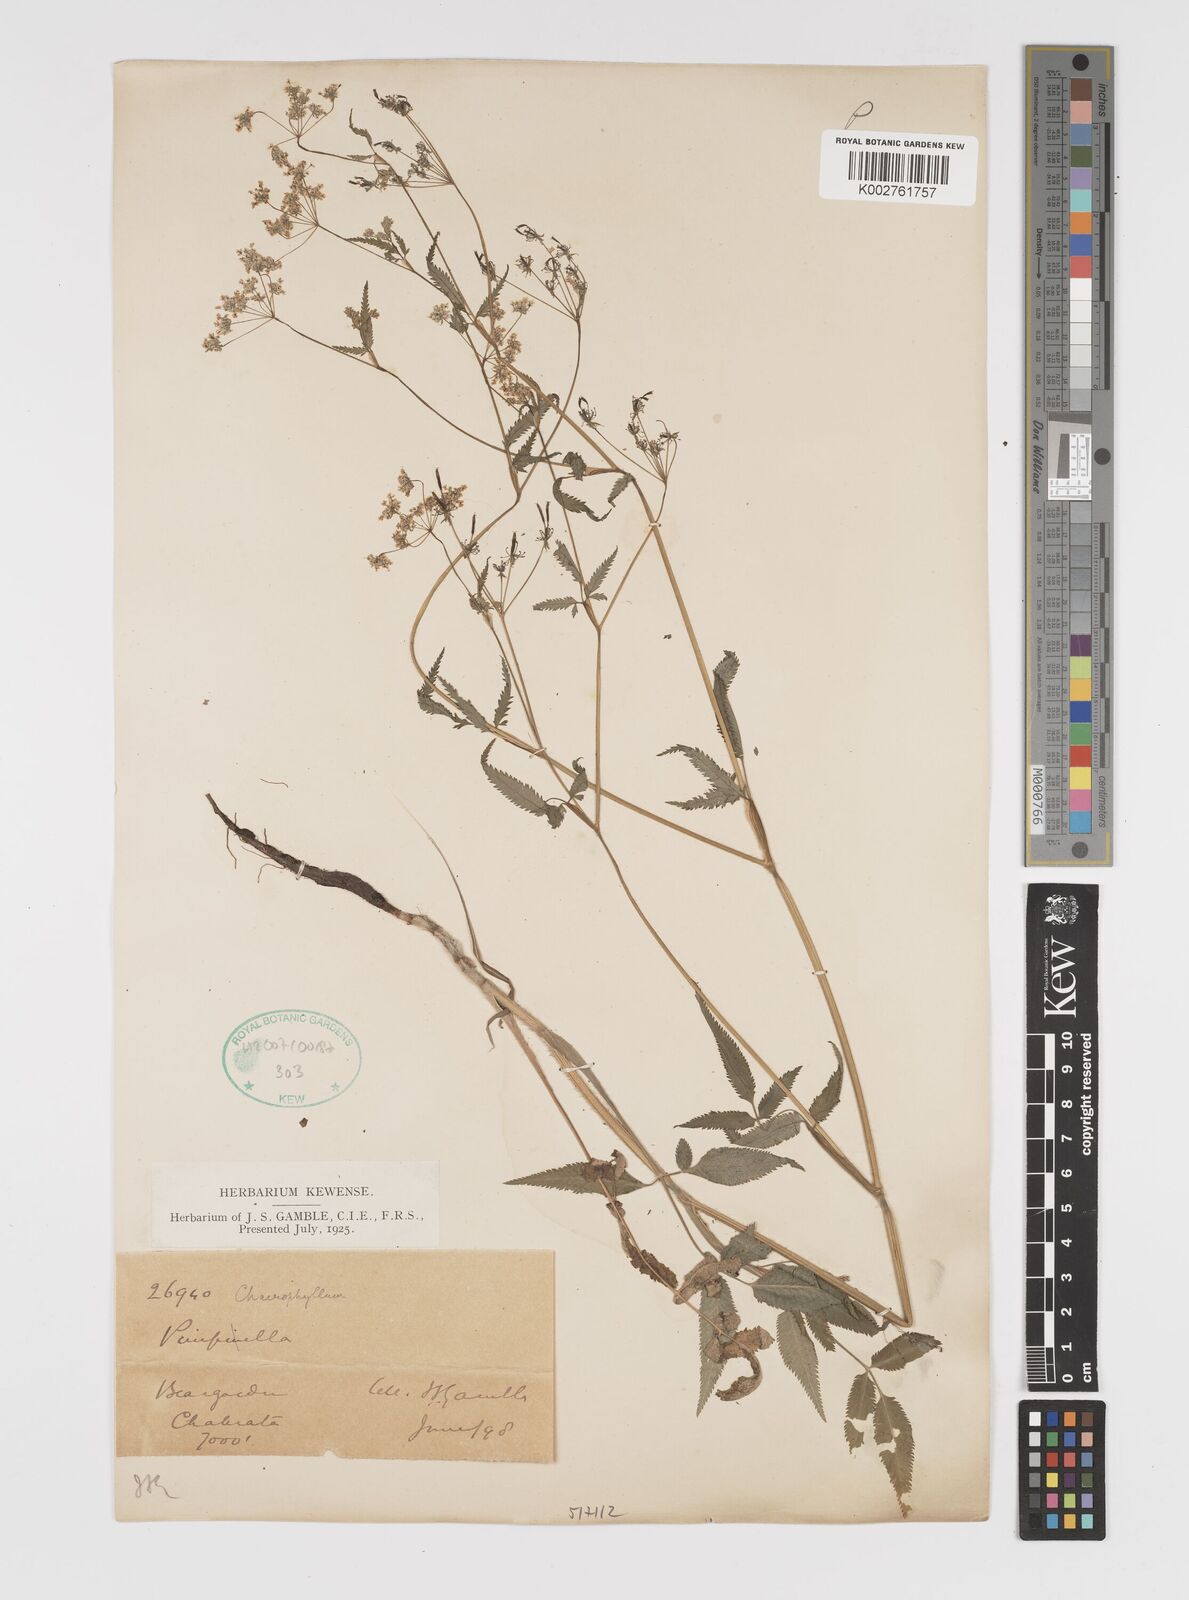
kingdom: Plantae
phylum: Tracheophyta
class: Magnoliopsida
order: Apiales
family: Apiaceae
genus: Chaerophyllum
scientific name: Chaerophyllum reflexum
